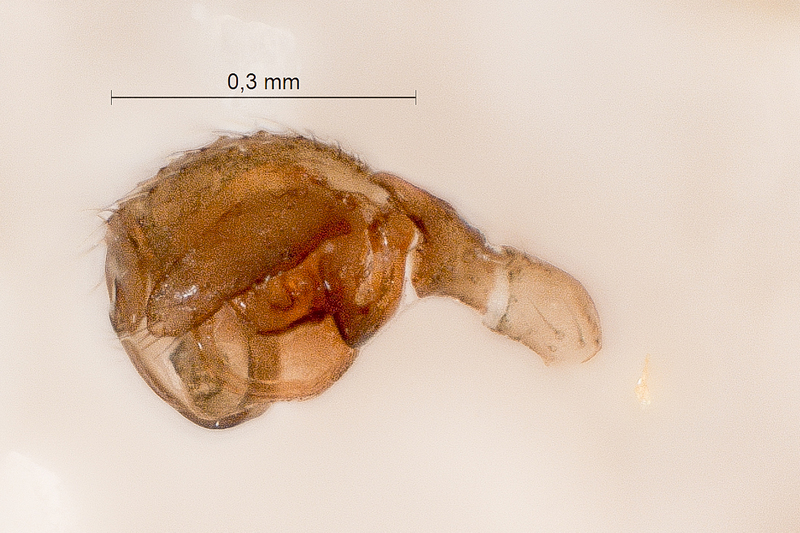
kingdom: Animalia
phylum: Arthropoda
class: Arachnida
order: Araneae
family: Linyphiidae
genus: Styloctetor
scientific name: Styloctetor romanus
